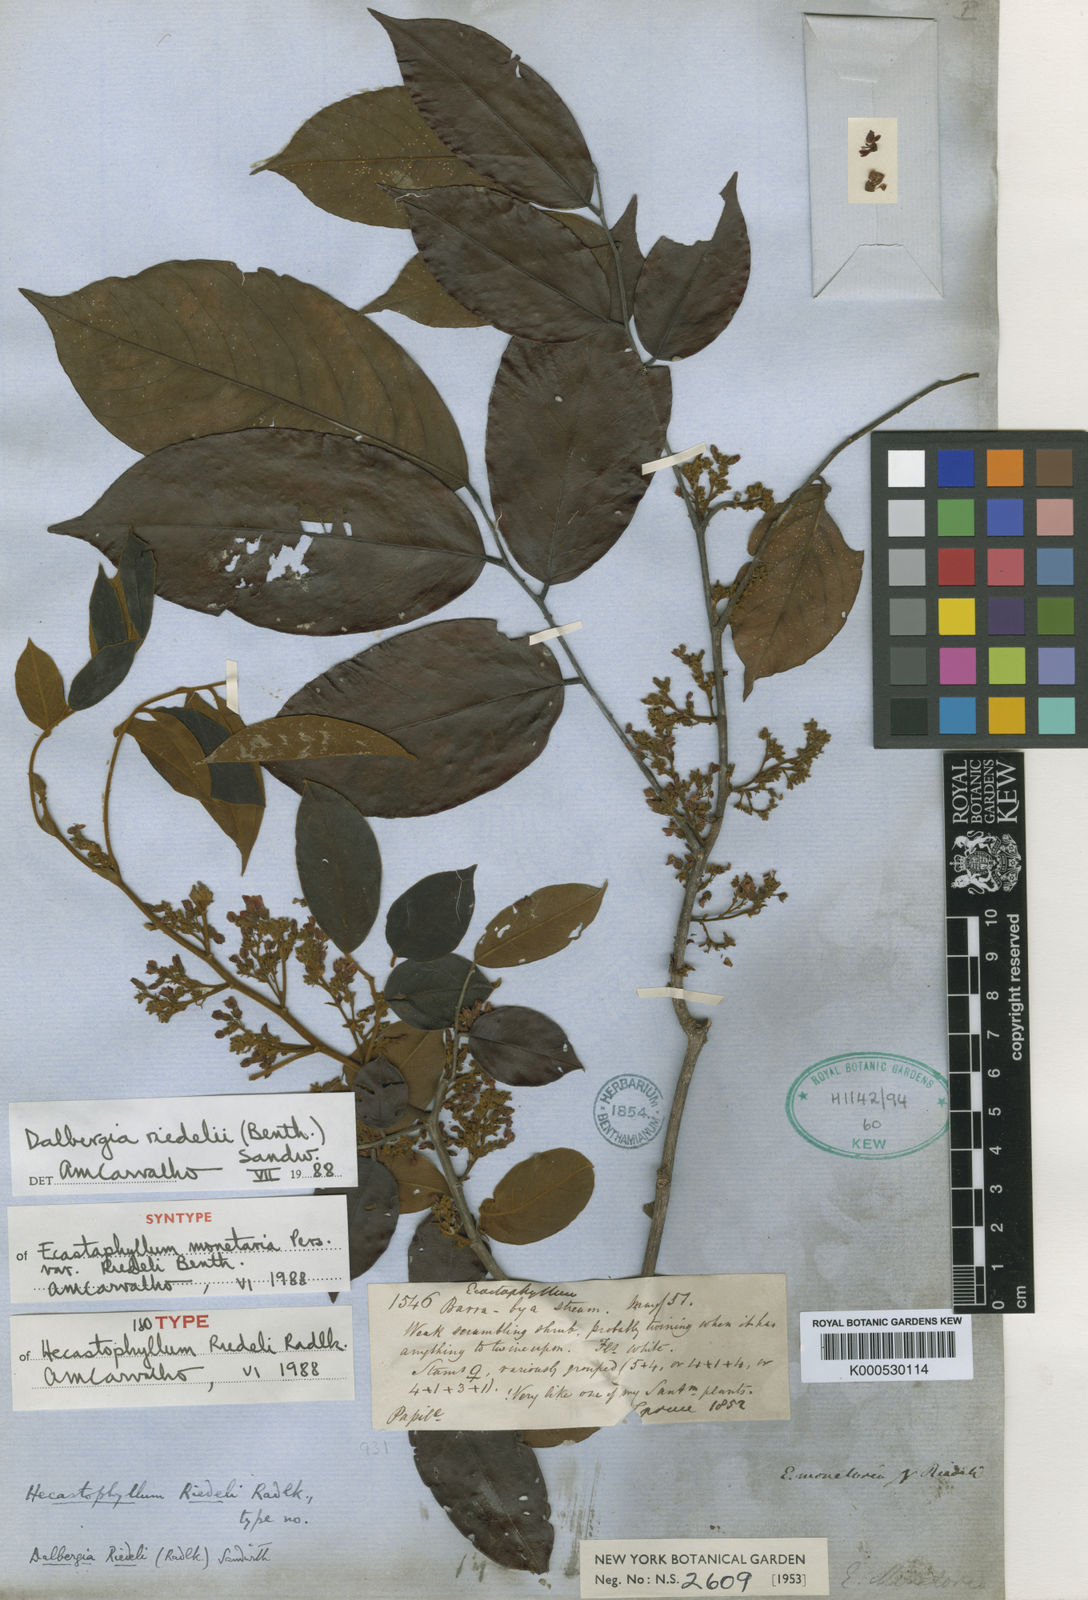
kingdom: Plantae
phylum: Tracheophyta
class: Magnoliopsida
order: Fabales
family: Fabaceae
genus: Dalbergia
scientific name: Dalbergia riedelii
